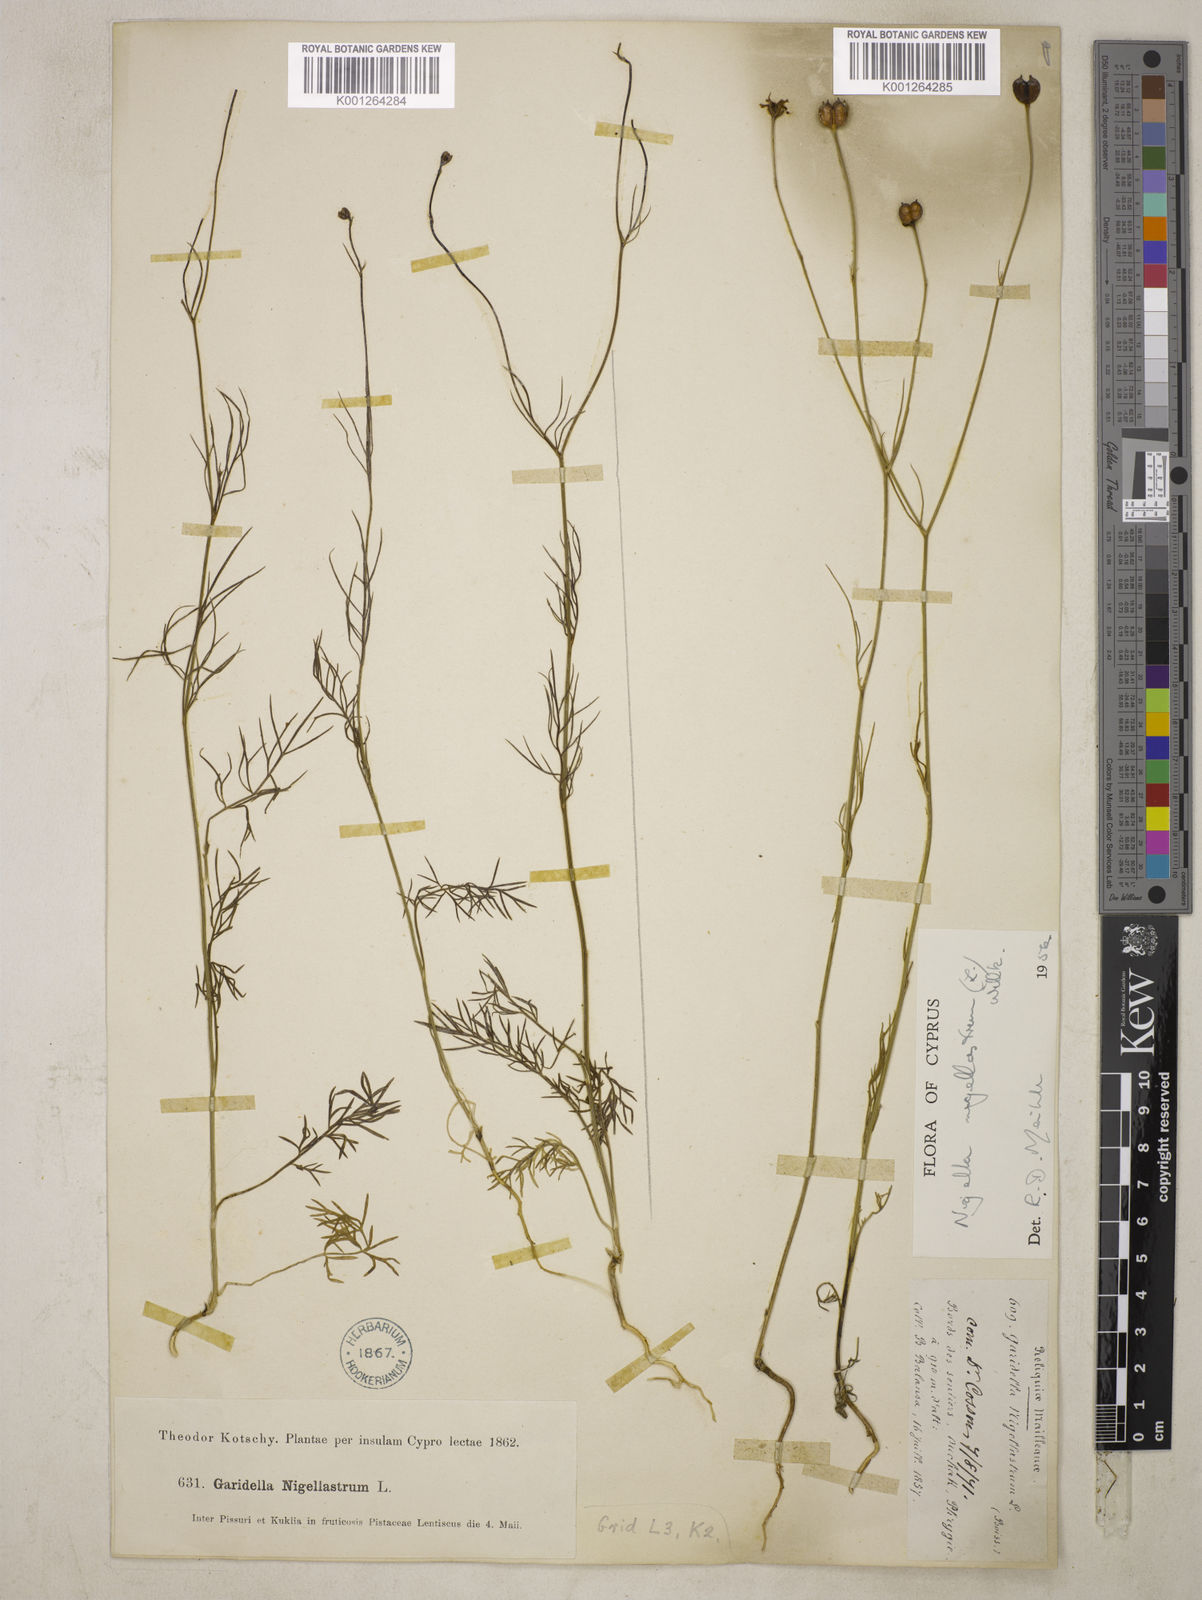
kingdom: Plantae
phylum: Tracheophyta
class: Magnoliopsida
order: Ranunculales
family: Ranunculaceae
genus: Garidella
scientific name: Garidella nigellastrum
